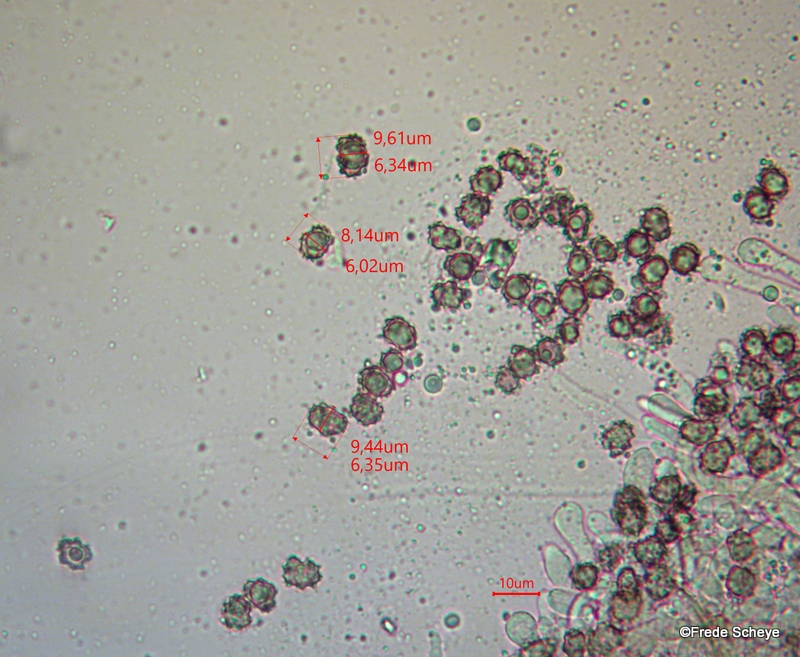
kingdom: Fungi
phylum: Basidiomycota
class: Agaricomycetes
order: Thelephorales
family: Thelephoraceae
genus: Thelephora
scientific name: Thelephora terrestris
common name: fliget frynsesvamp
